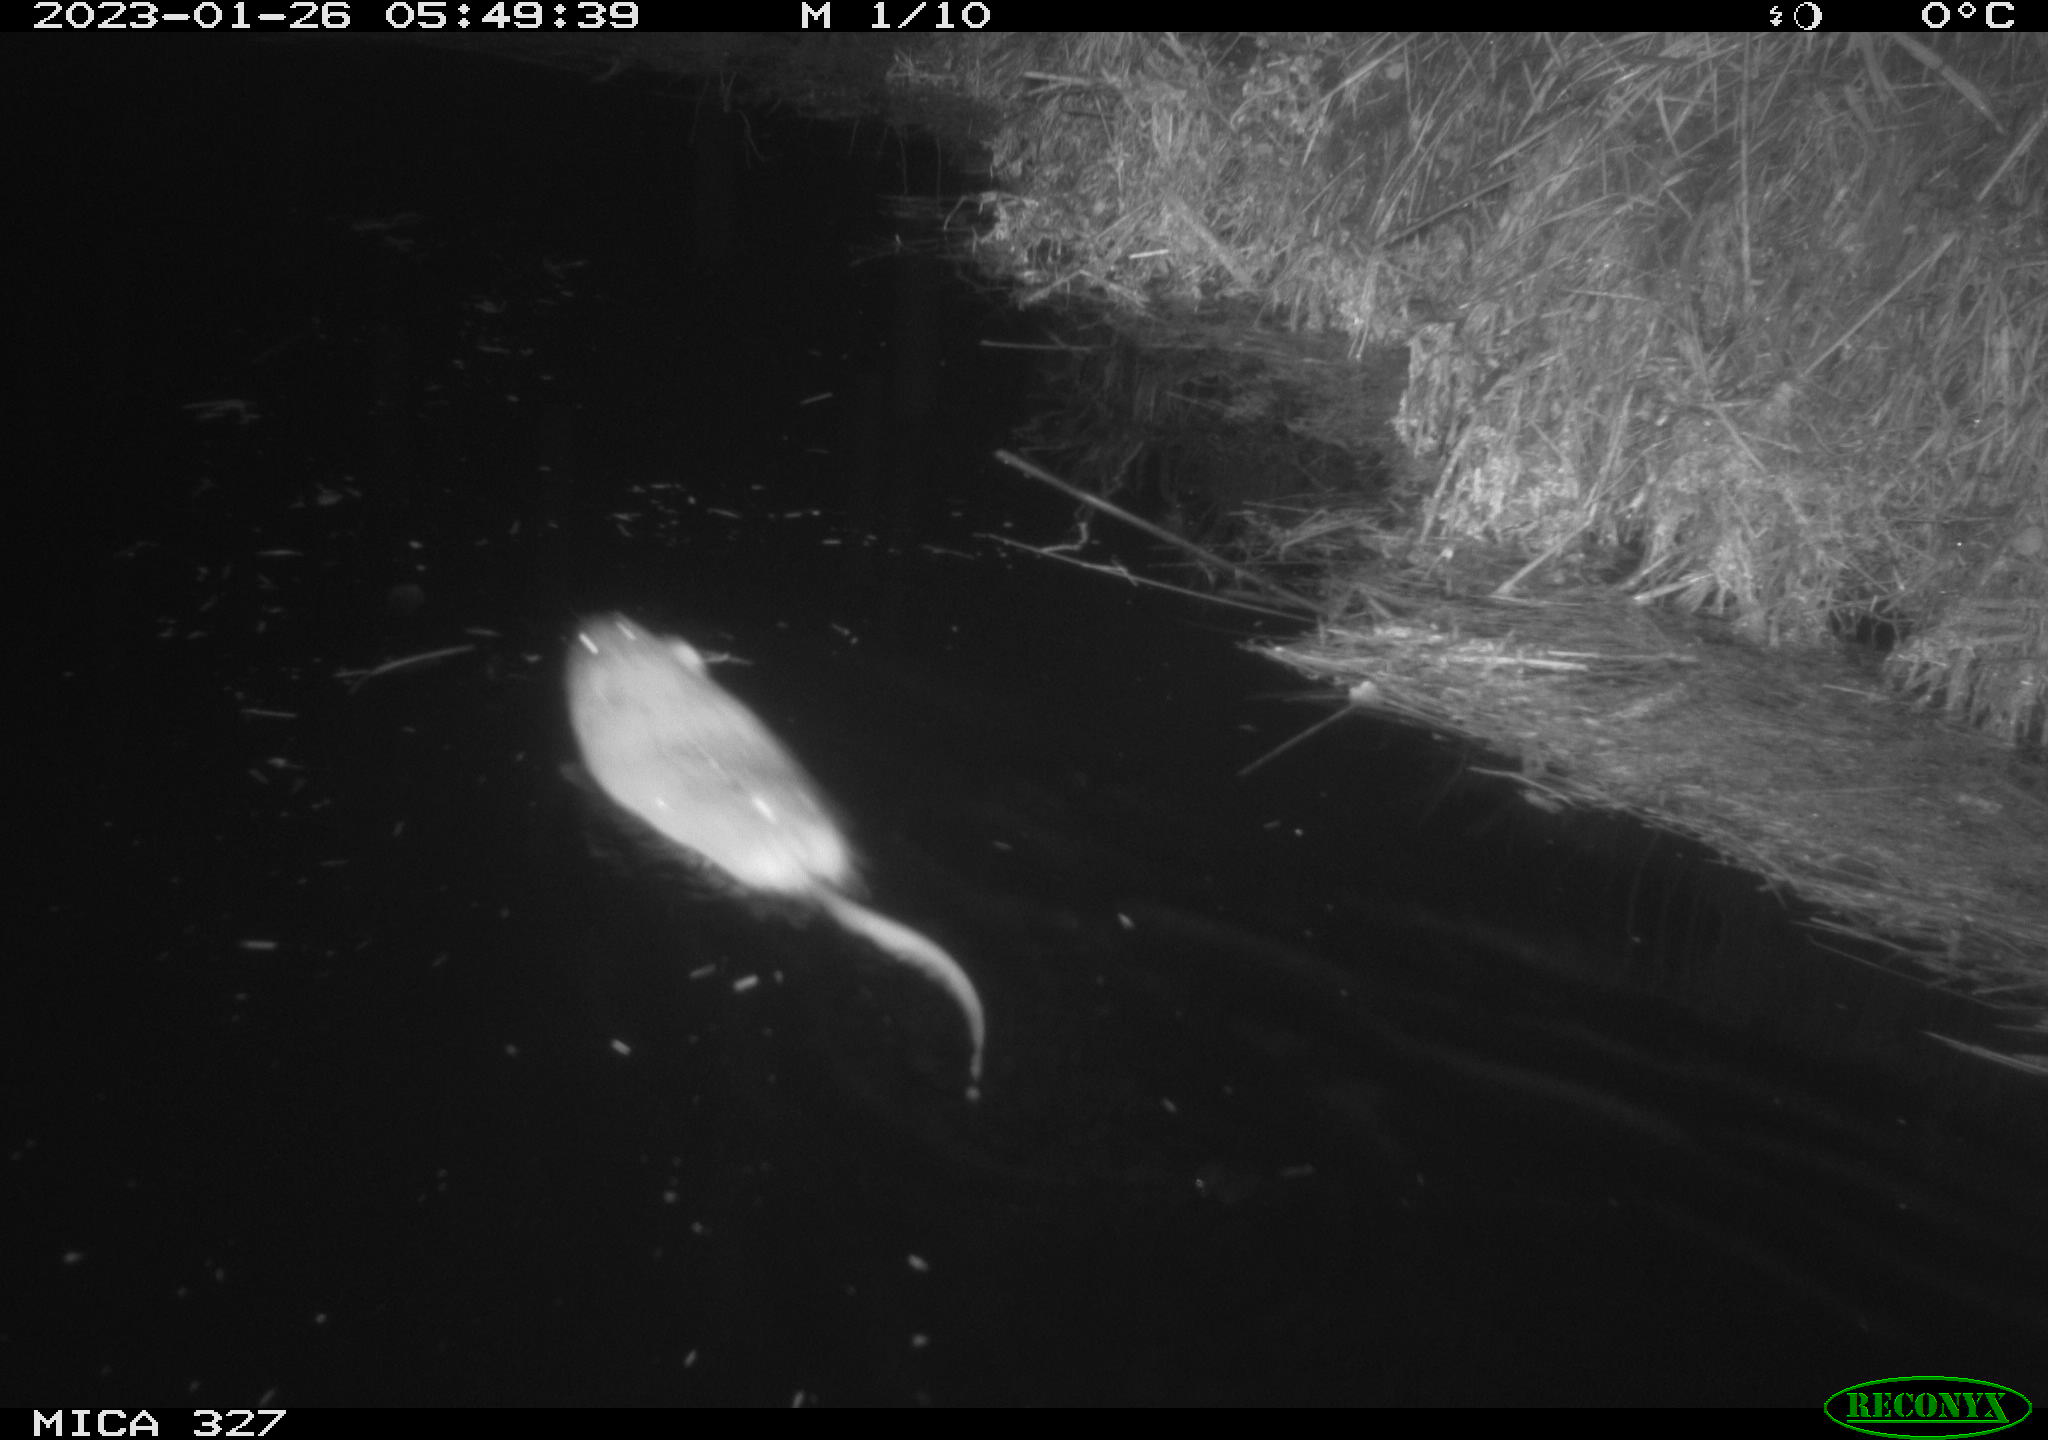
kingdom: Animalia
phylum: Chordata
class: Mammalia
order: Rodentia
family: Cricetidae
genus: Ondatra
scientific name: Ondatra zibethicus
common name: Muskrat
